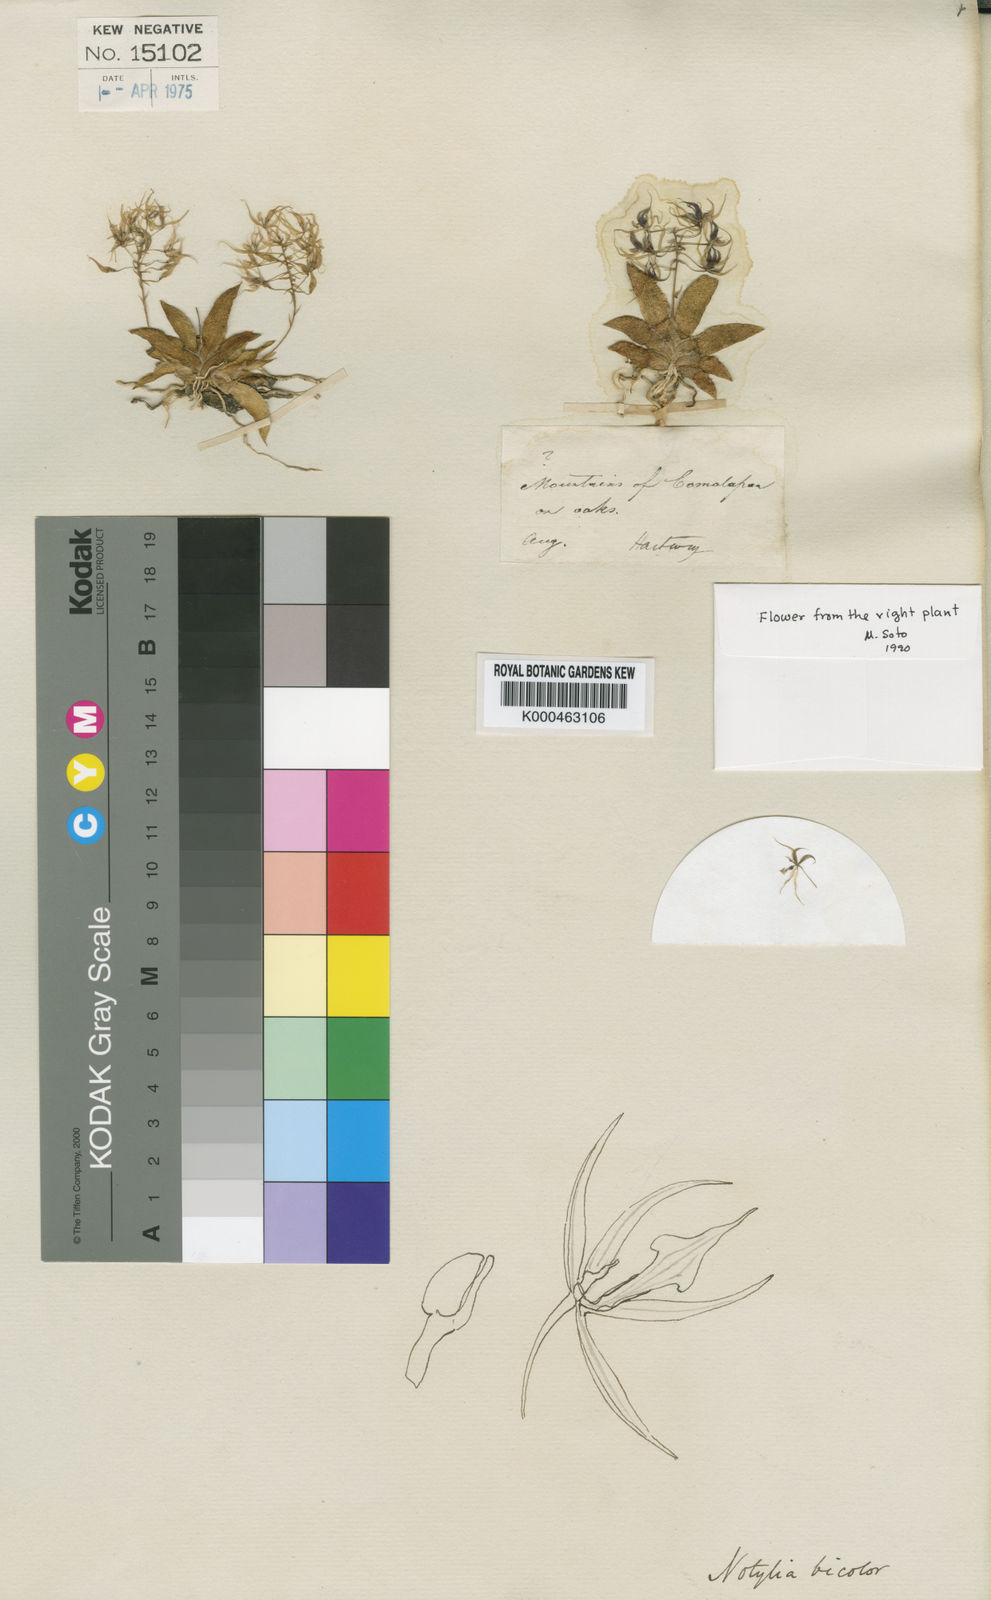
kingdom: Plantae
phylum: Tracheophyta
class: Liliopsida
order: Asparagales
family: Orchidaceae
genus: Macroclinium
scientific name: Macroclinium bicolor
